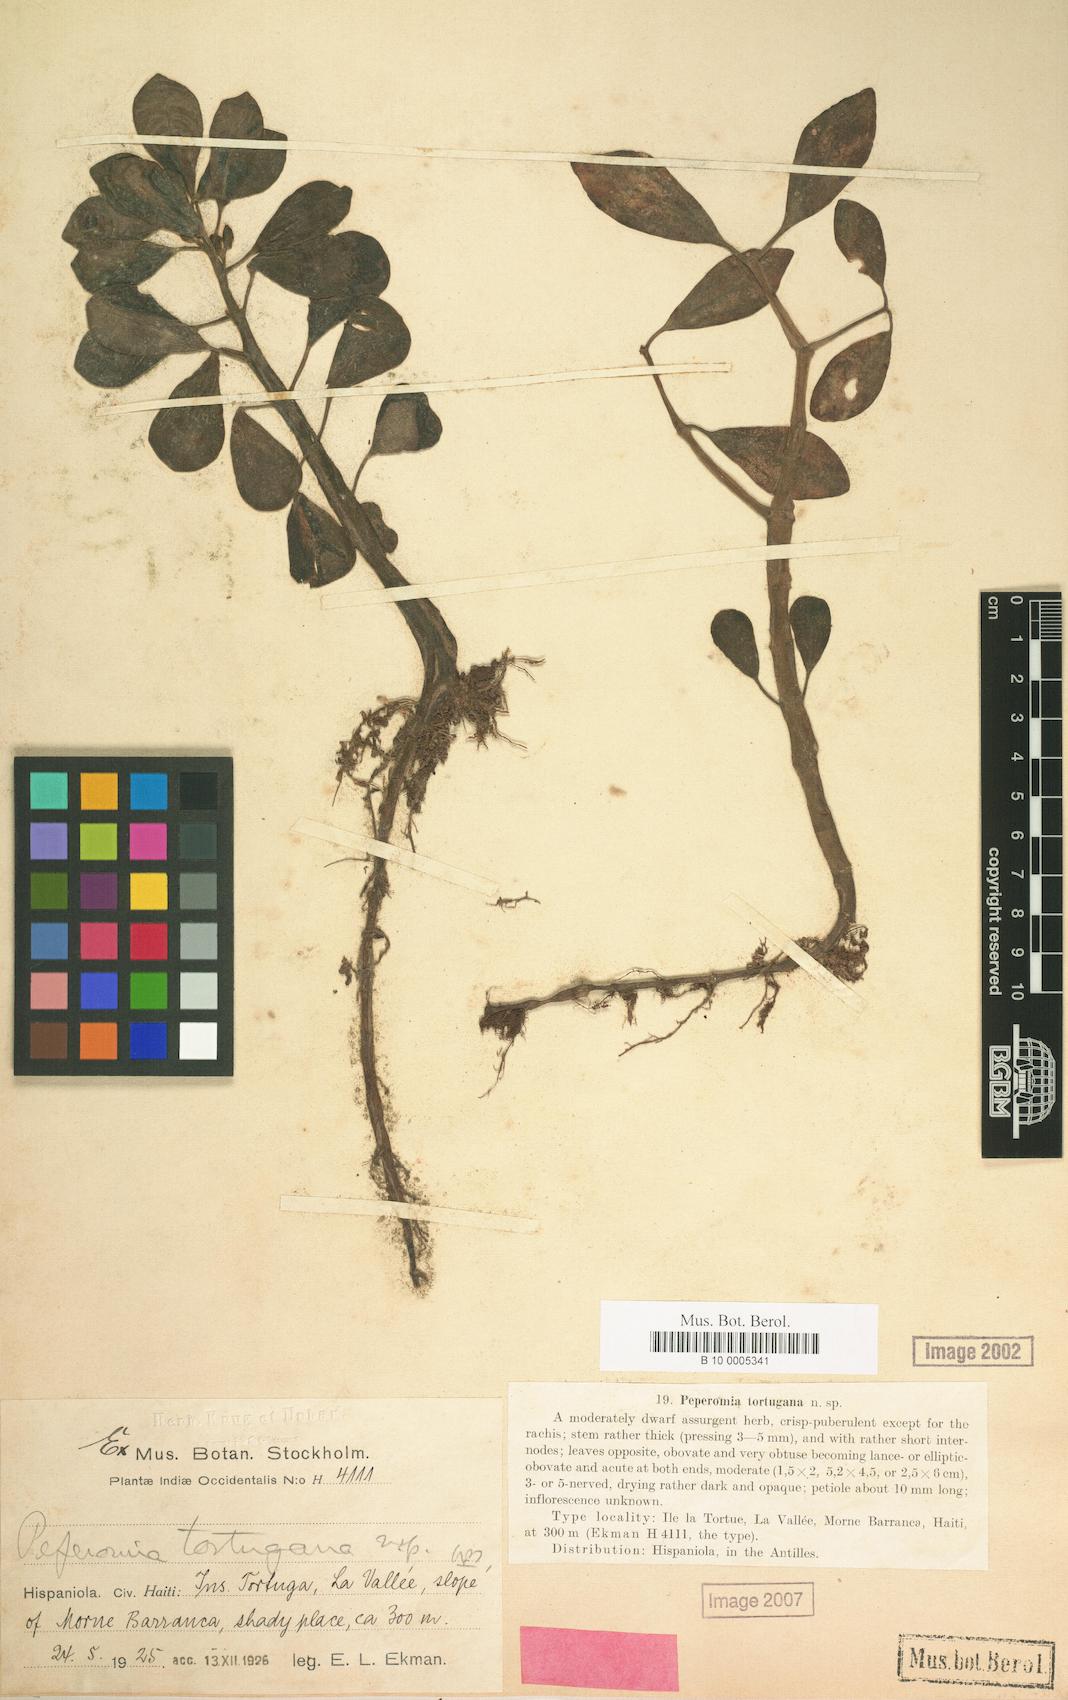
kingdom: Plantae
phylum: Tracheophyta
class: Magnoliopsida
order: Piperales
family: Piperaceae
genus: Peperomia
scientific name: Peperomia blanda
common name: Arid-land peperomia
